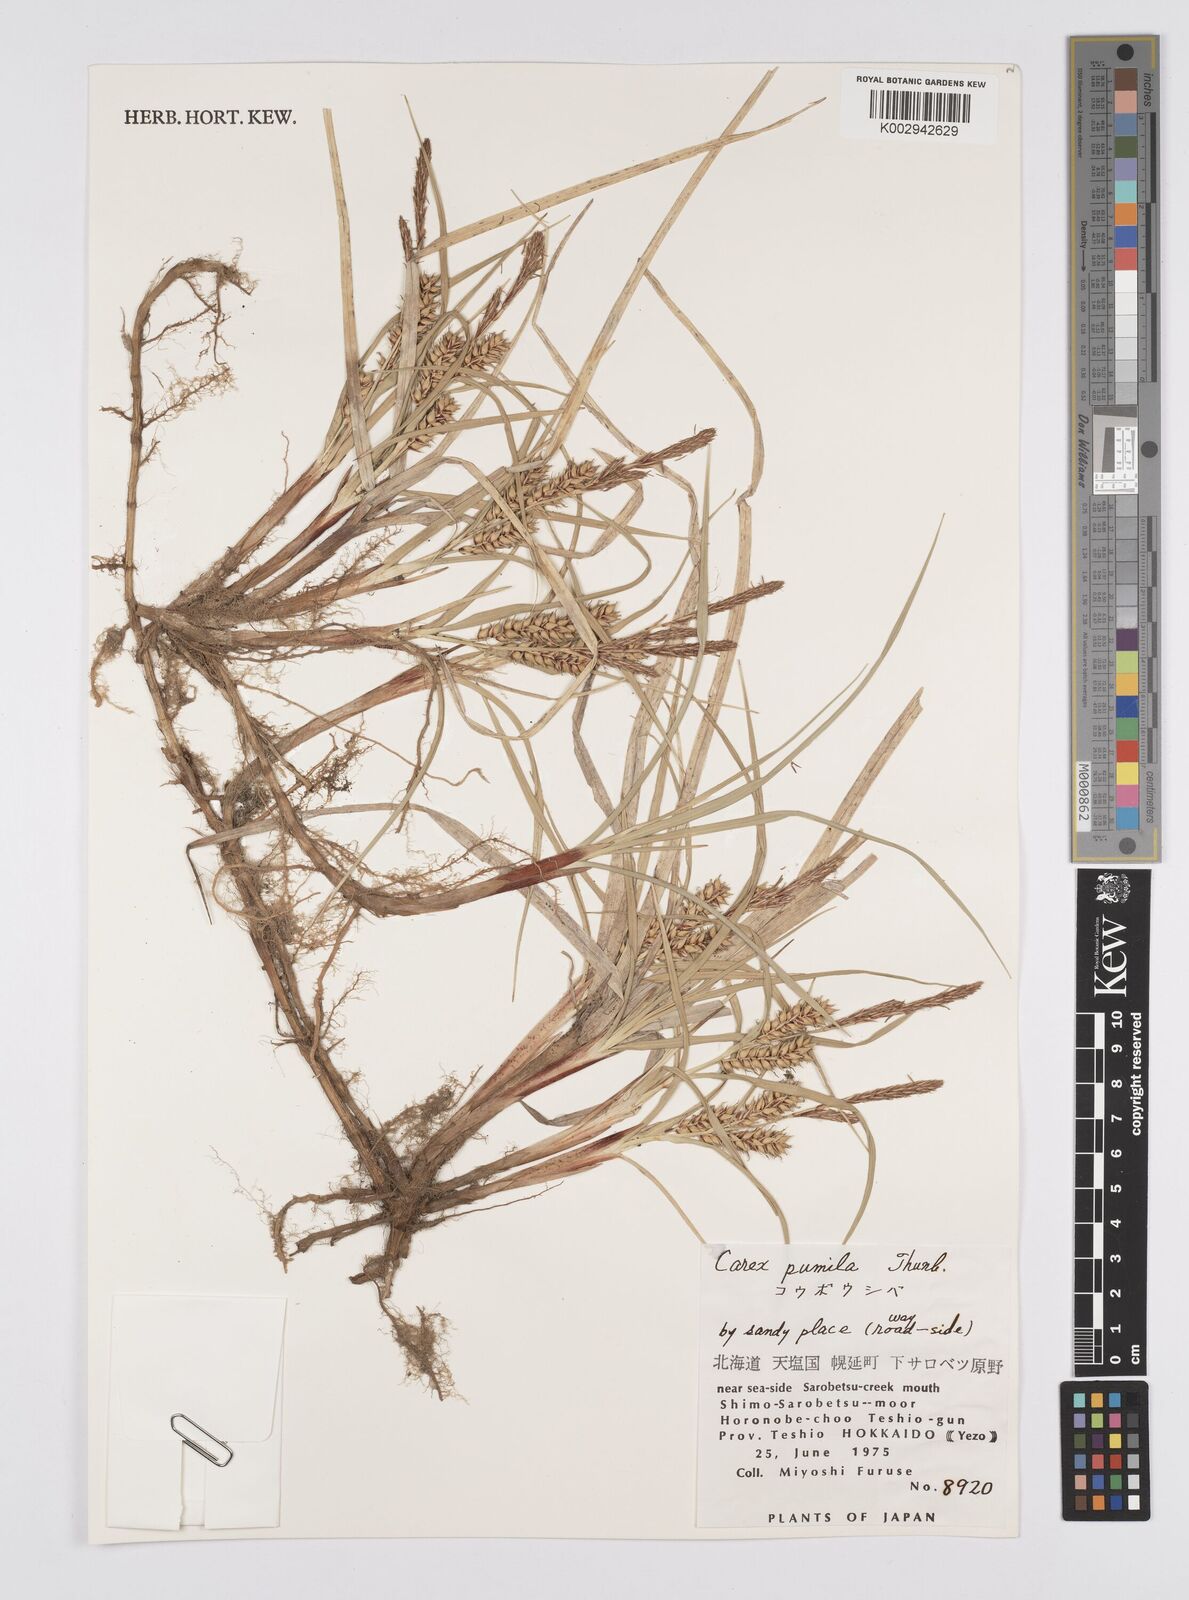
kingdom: Plantae
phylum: Tracheophyta
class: Liliopsida
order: Poales
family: Cyperaceae
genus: Carex
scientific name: Carex pumila
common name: Dwarf sedge
